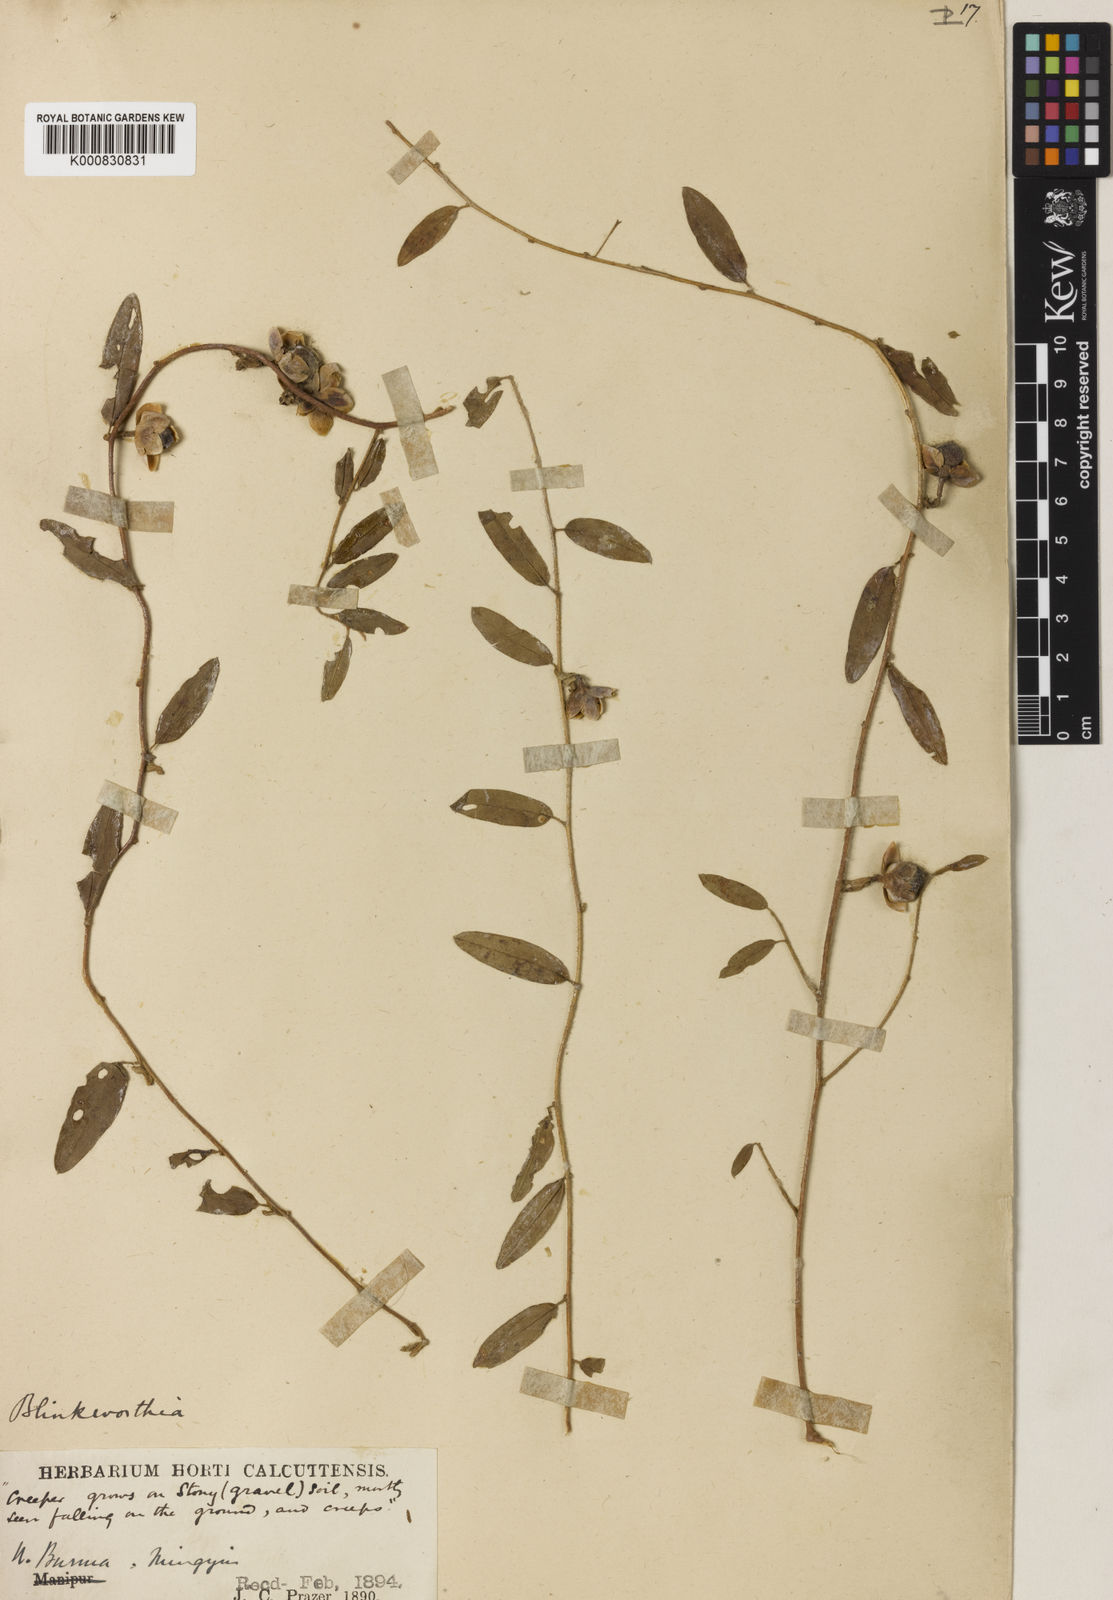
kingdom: Plantae
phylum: Tracheophyta
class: Magnoliopsida
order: Solanales
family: Convolvulaceae
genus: Blinkworthia
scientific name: Blinkworthia convolvuloides
